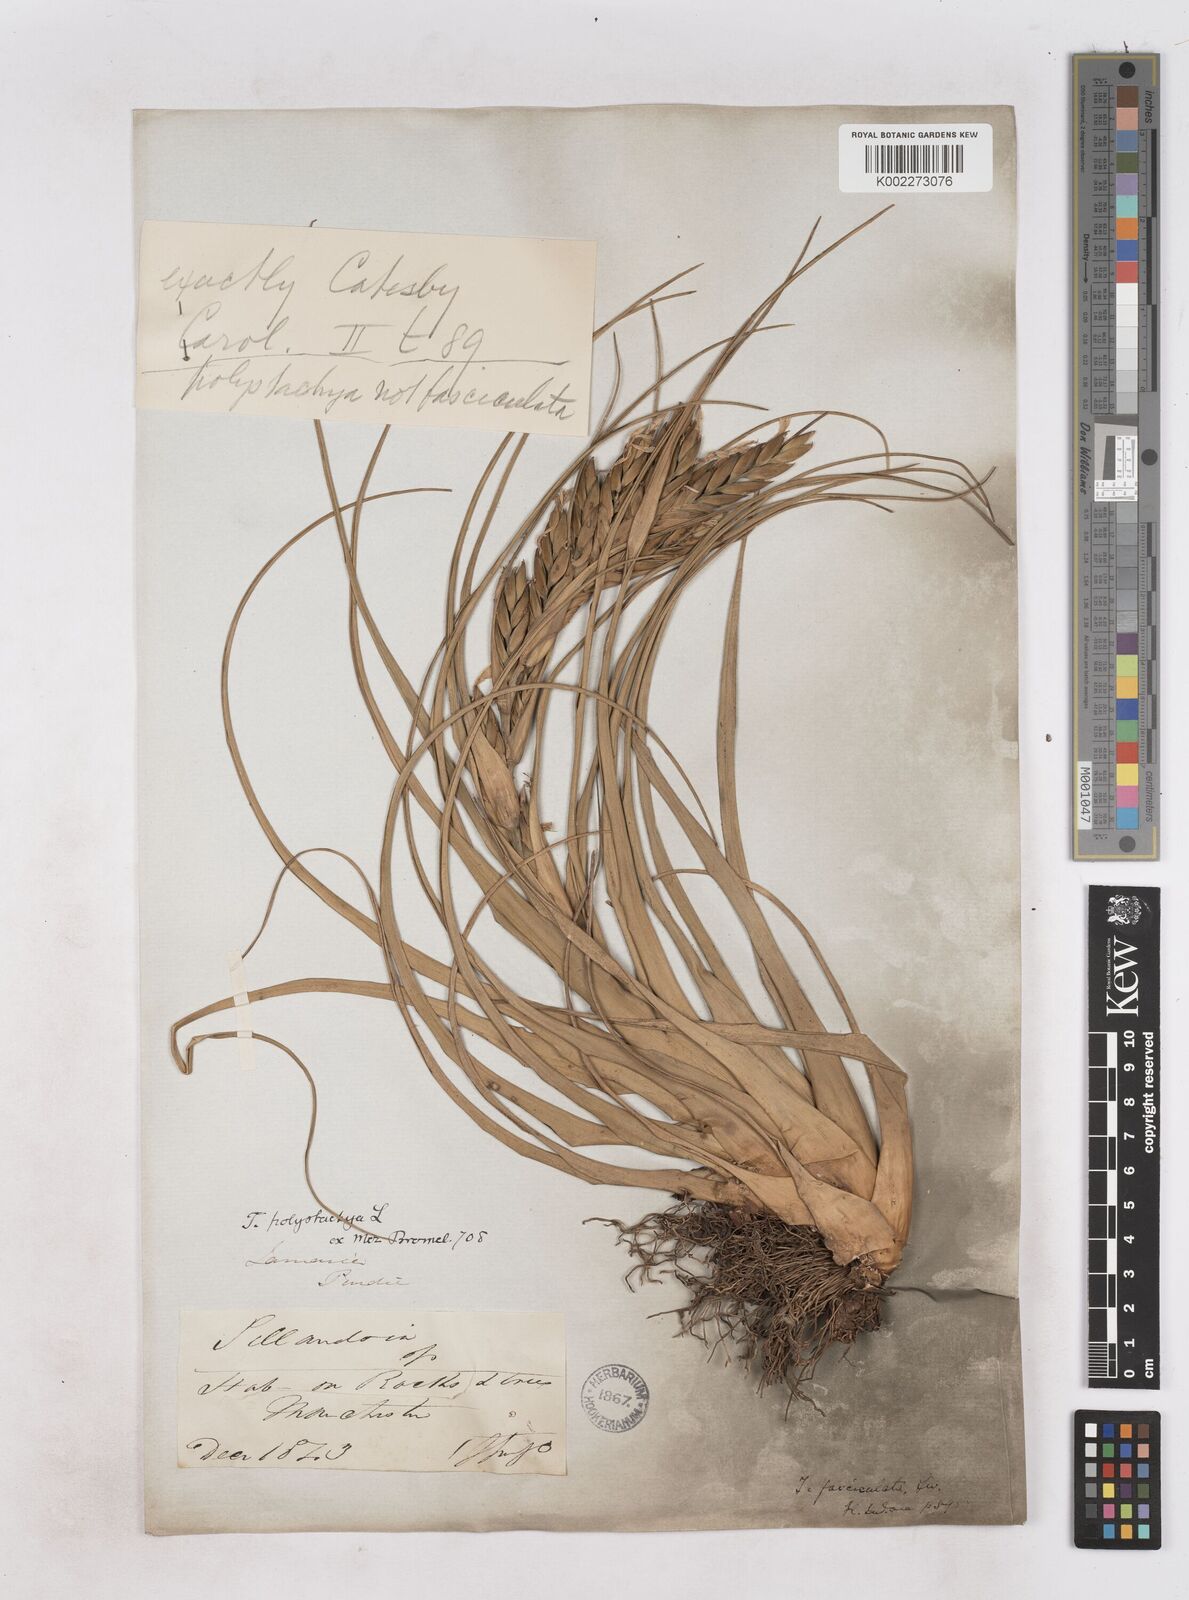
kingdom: Plantae
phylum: Tracheophyta
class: Liliopsida
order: Poales
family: Bromeliaceae
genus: Tillandsia
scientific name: Tillandsia polystachia
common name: Airplant
